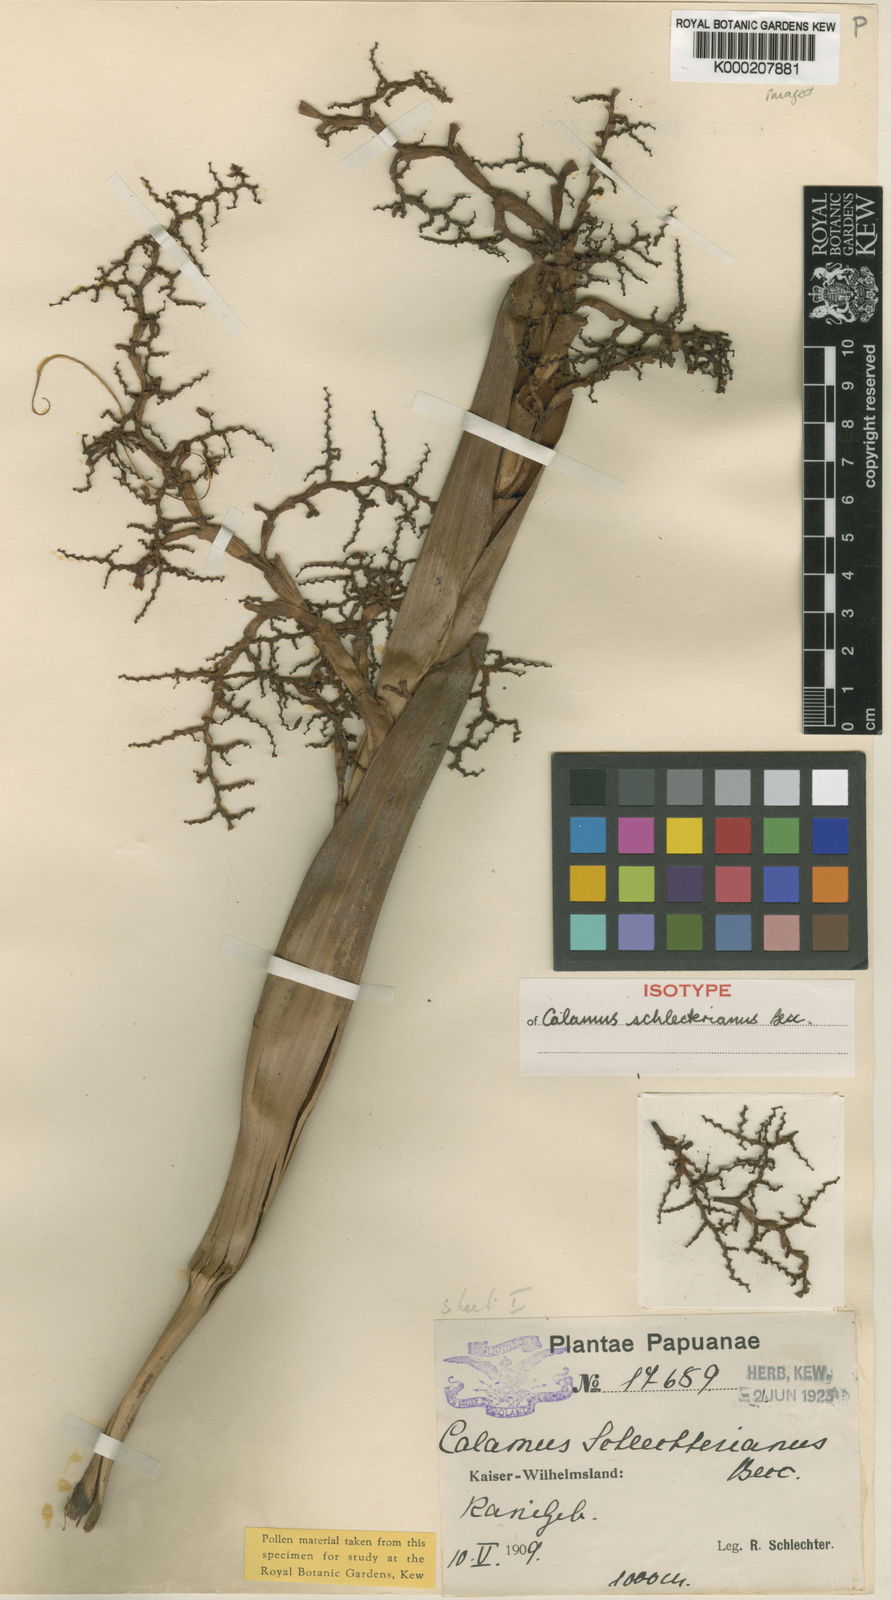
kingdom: Plantae
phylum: Tracheophyta
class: Liliopsida
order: Arecales
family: Arecaceae
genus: Calamus
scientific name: Calamus schlechterianus
